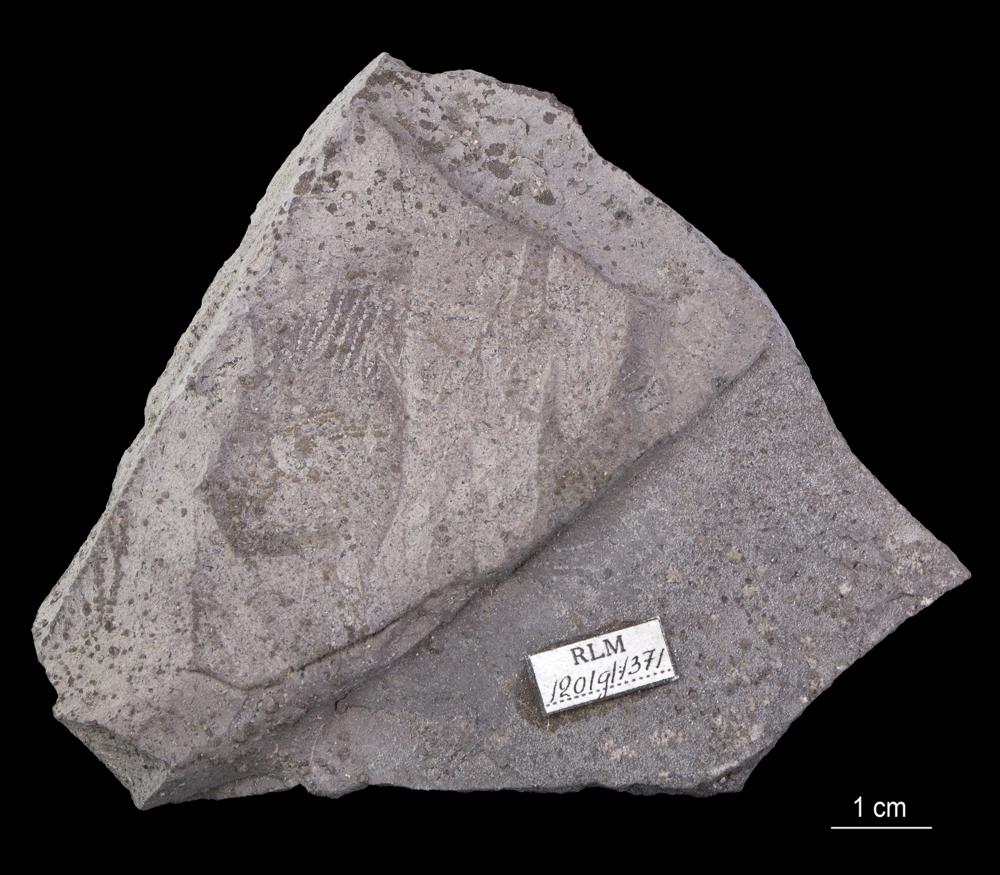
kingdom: Animalia
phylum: Hemichordata
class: Pterobranchia
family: Anisograptidae
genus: Rhabdinopora
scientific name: Rhabdinopora Gorgonia flabelliformis
